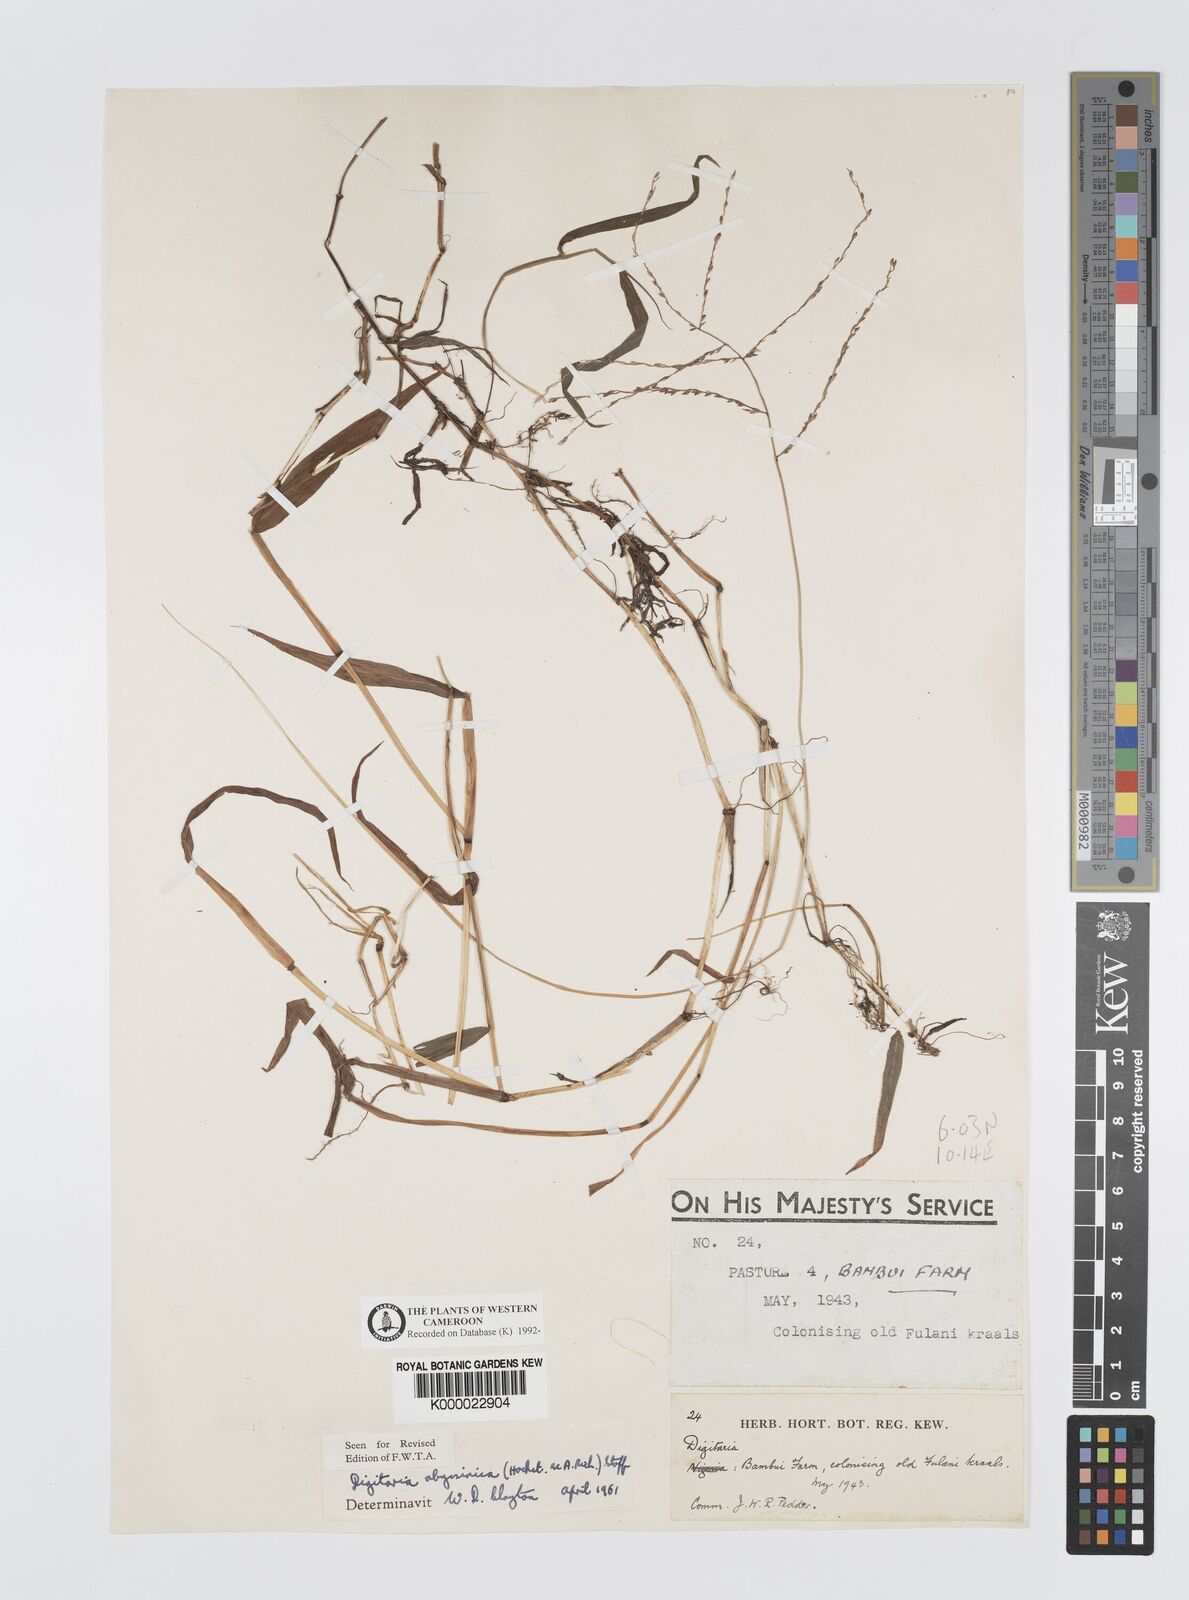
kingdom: Plantae
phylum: Tracheophyta
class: Liliopsida
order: Poales
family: Poaceae
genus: Digitaria
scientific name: Digitaria abyssinica
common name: African couchgrass
